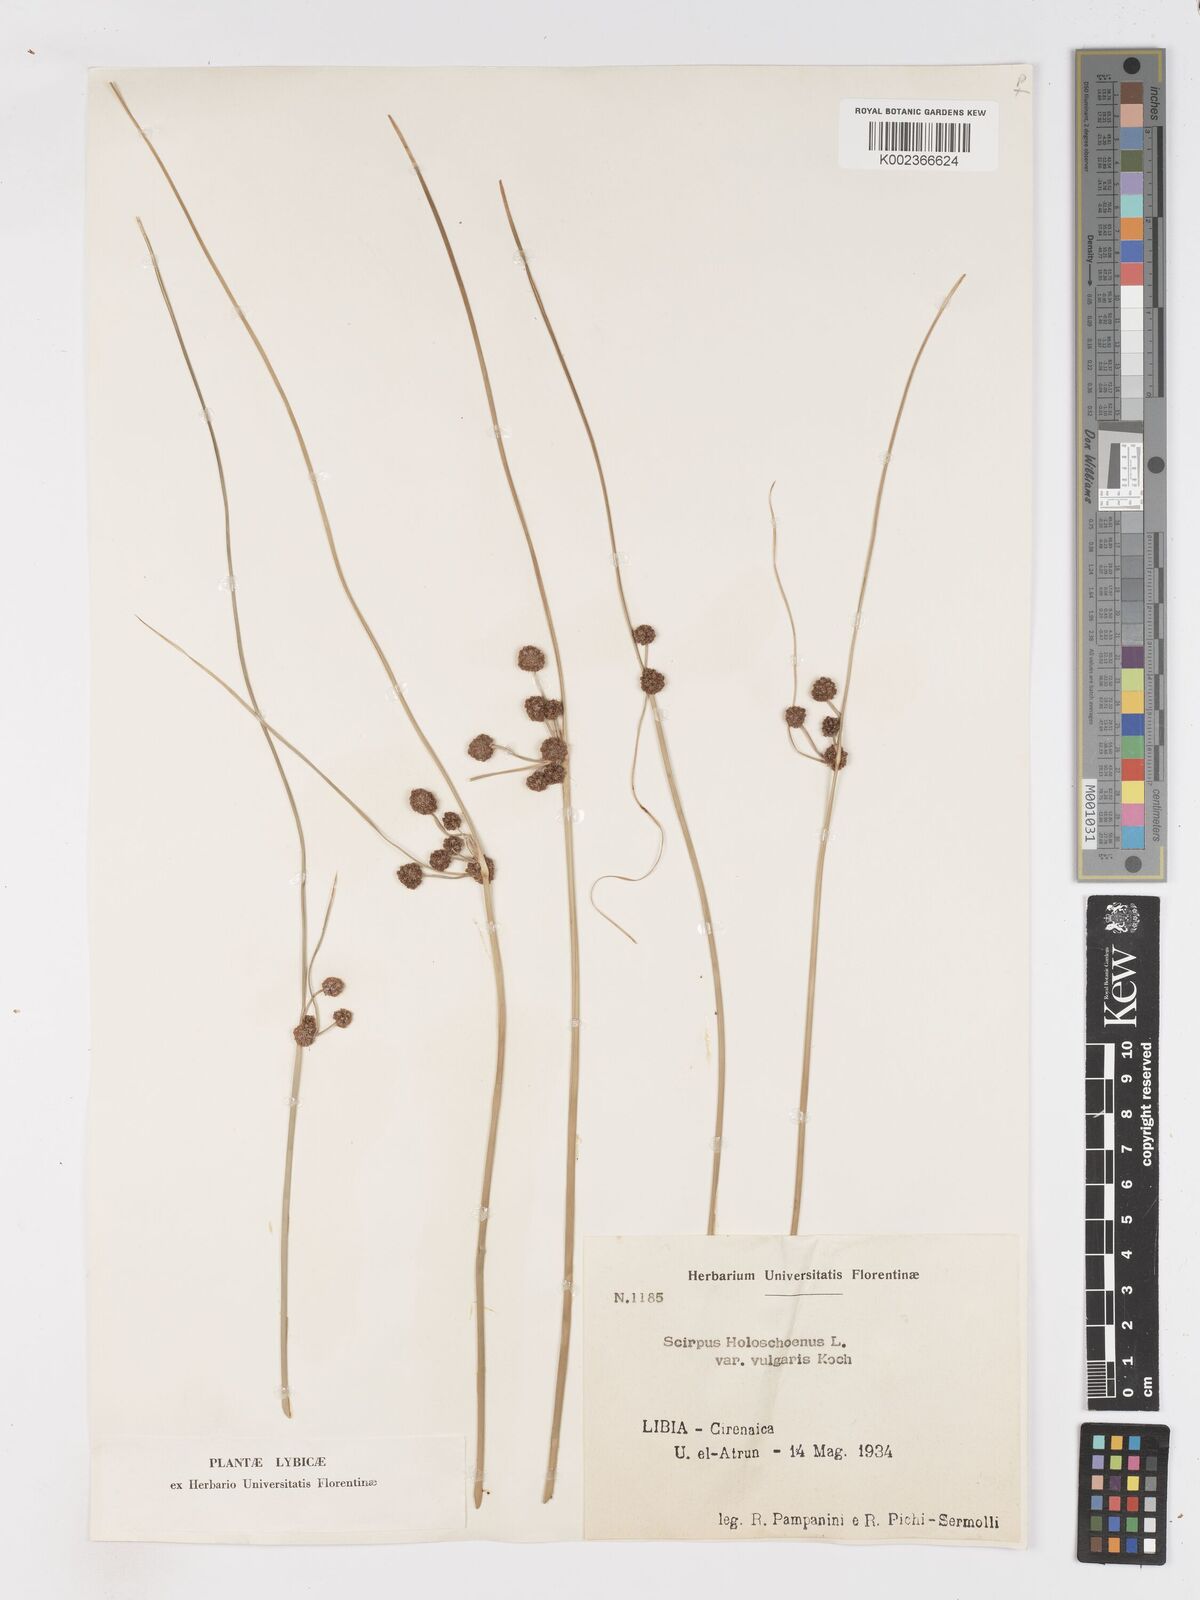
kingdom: Plantae
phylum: Tracheophyta
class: Liliopsida
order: Poales
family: Cyperaceae
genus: Scirpoides
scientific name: Scirpoides holoschoenus
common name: Round-headed club-rush
